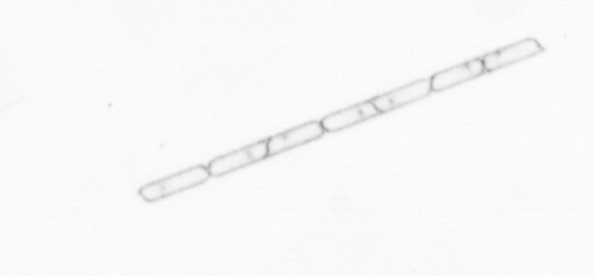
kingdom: Chromista
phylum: Ochrophyta
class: Bacillariophyceae
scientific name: Bacillariophyceae
